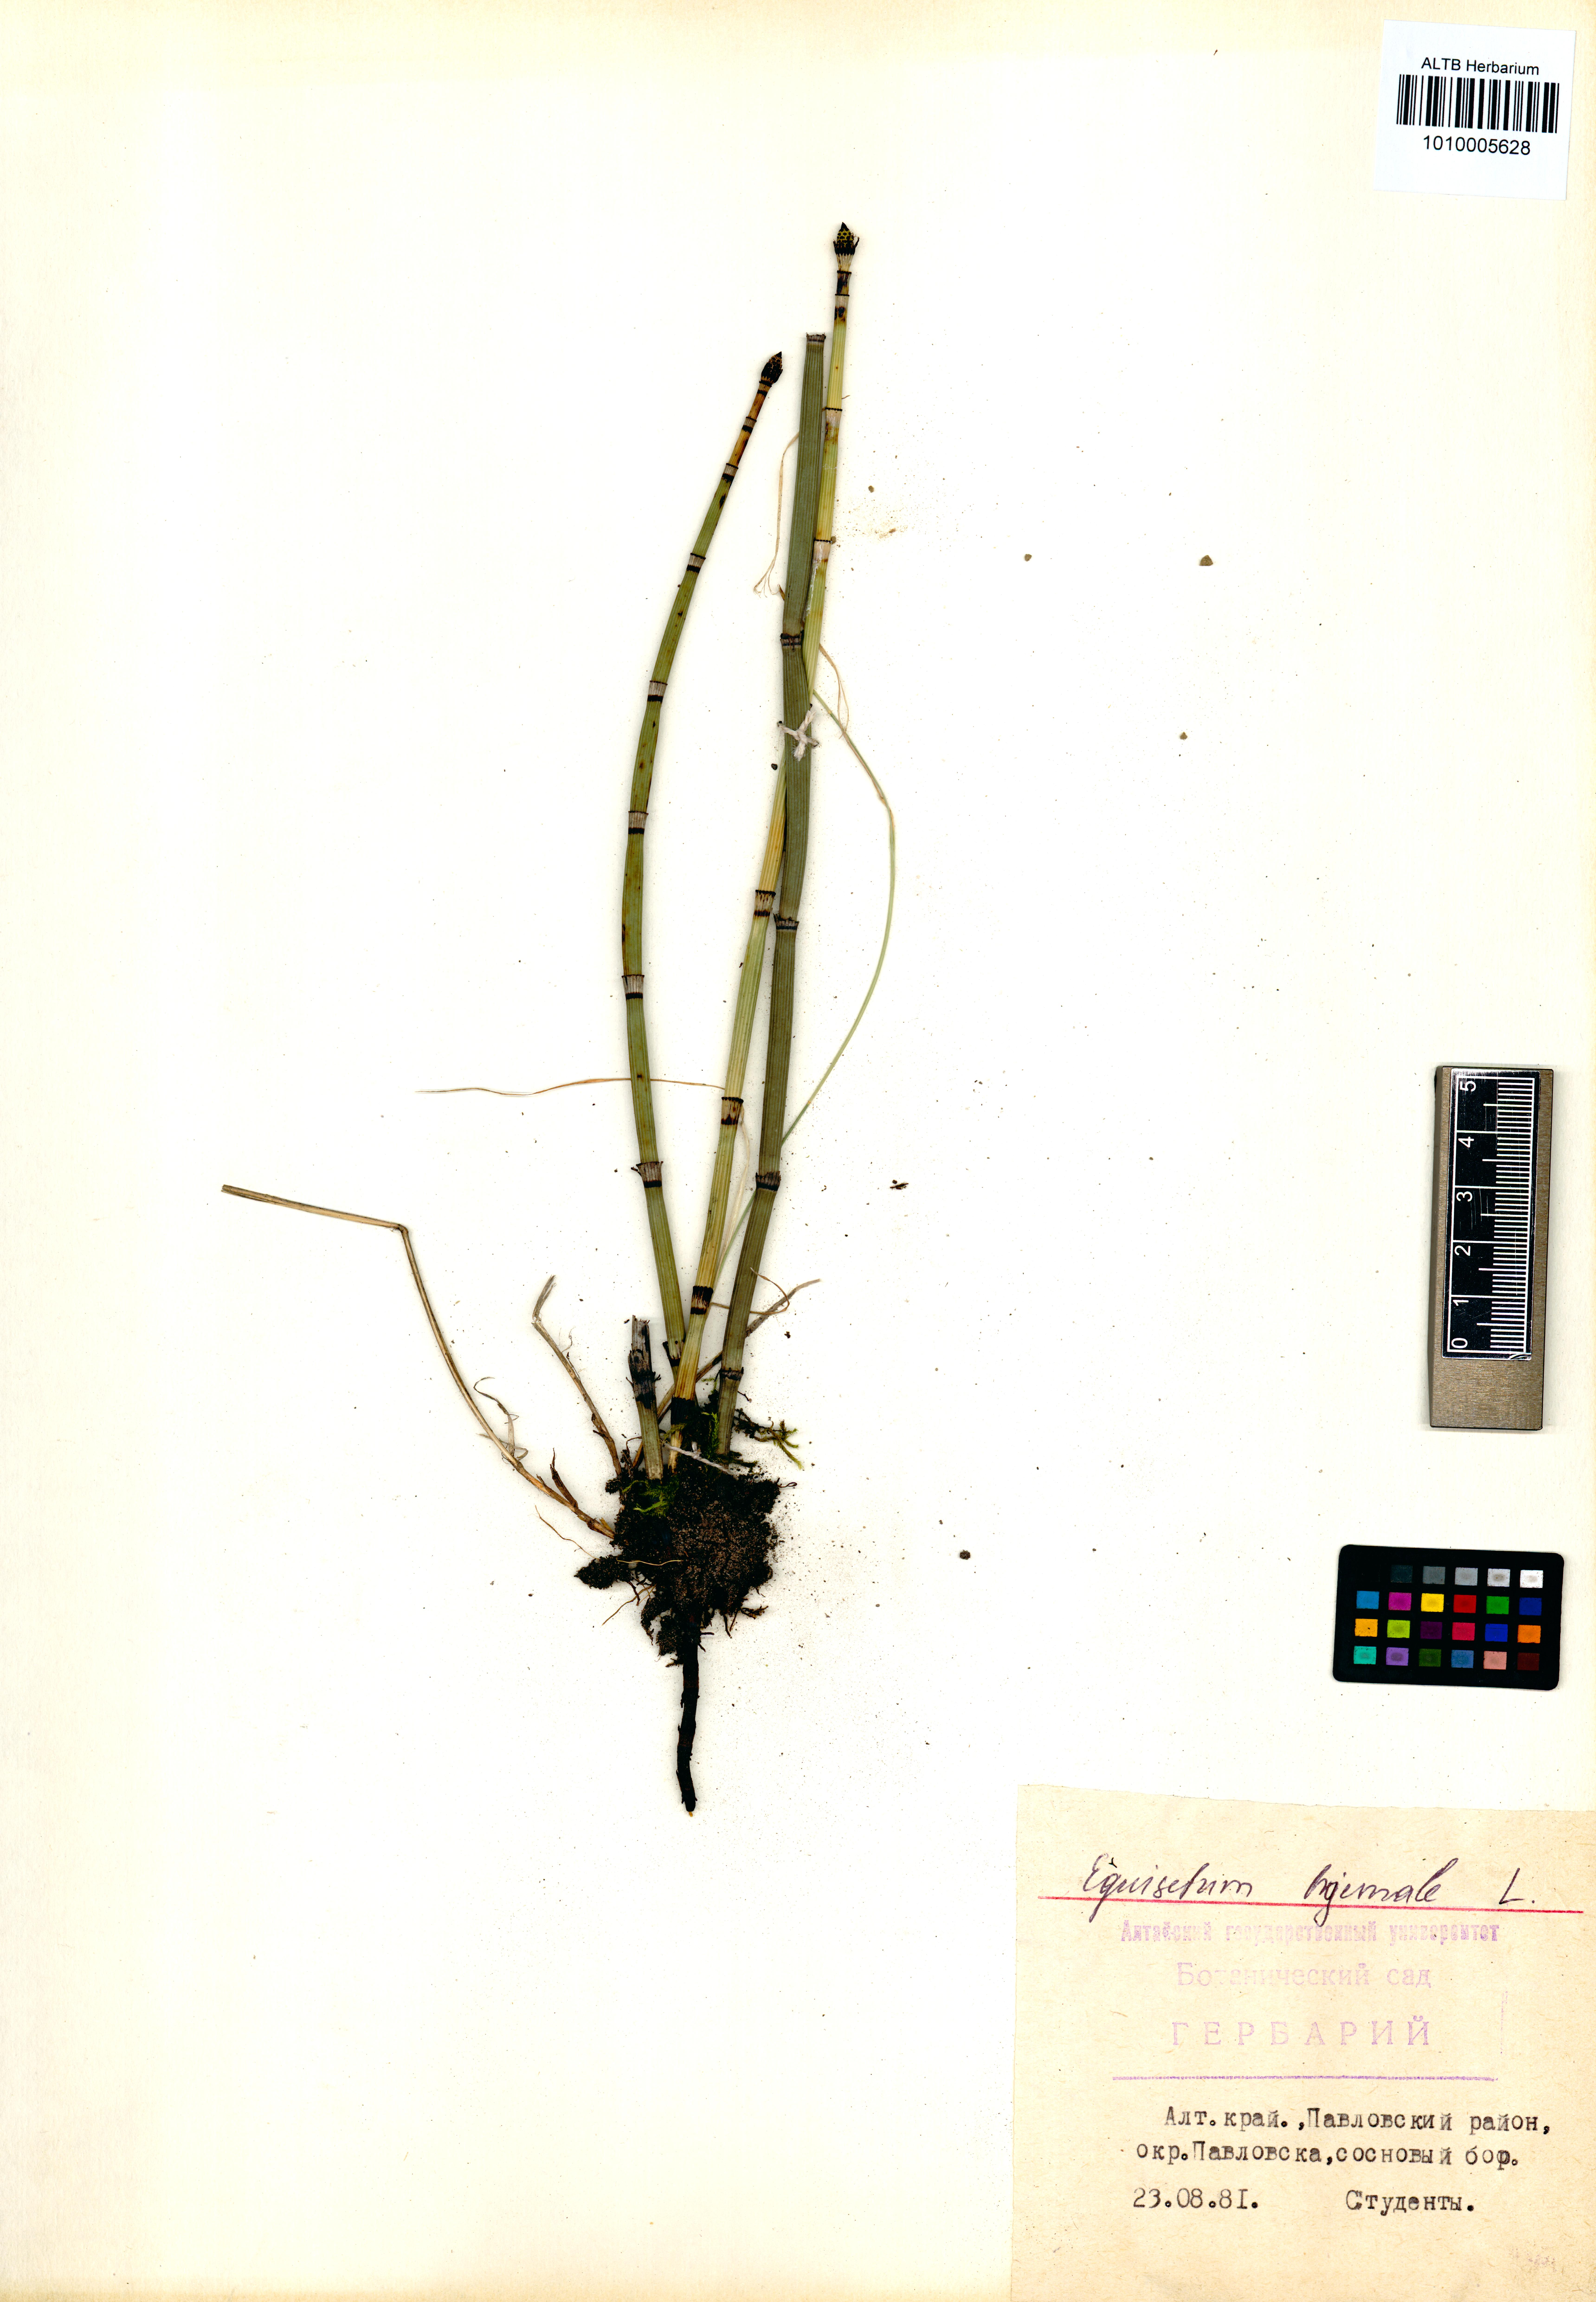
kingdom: Plantae
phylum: Tracheophyta
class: Polypodiopsida
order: Equisetales
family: Equisetaceae
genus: Equisetum
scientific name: Equisetum hyemale
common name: Rough horsetail
